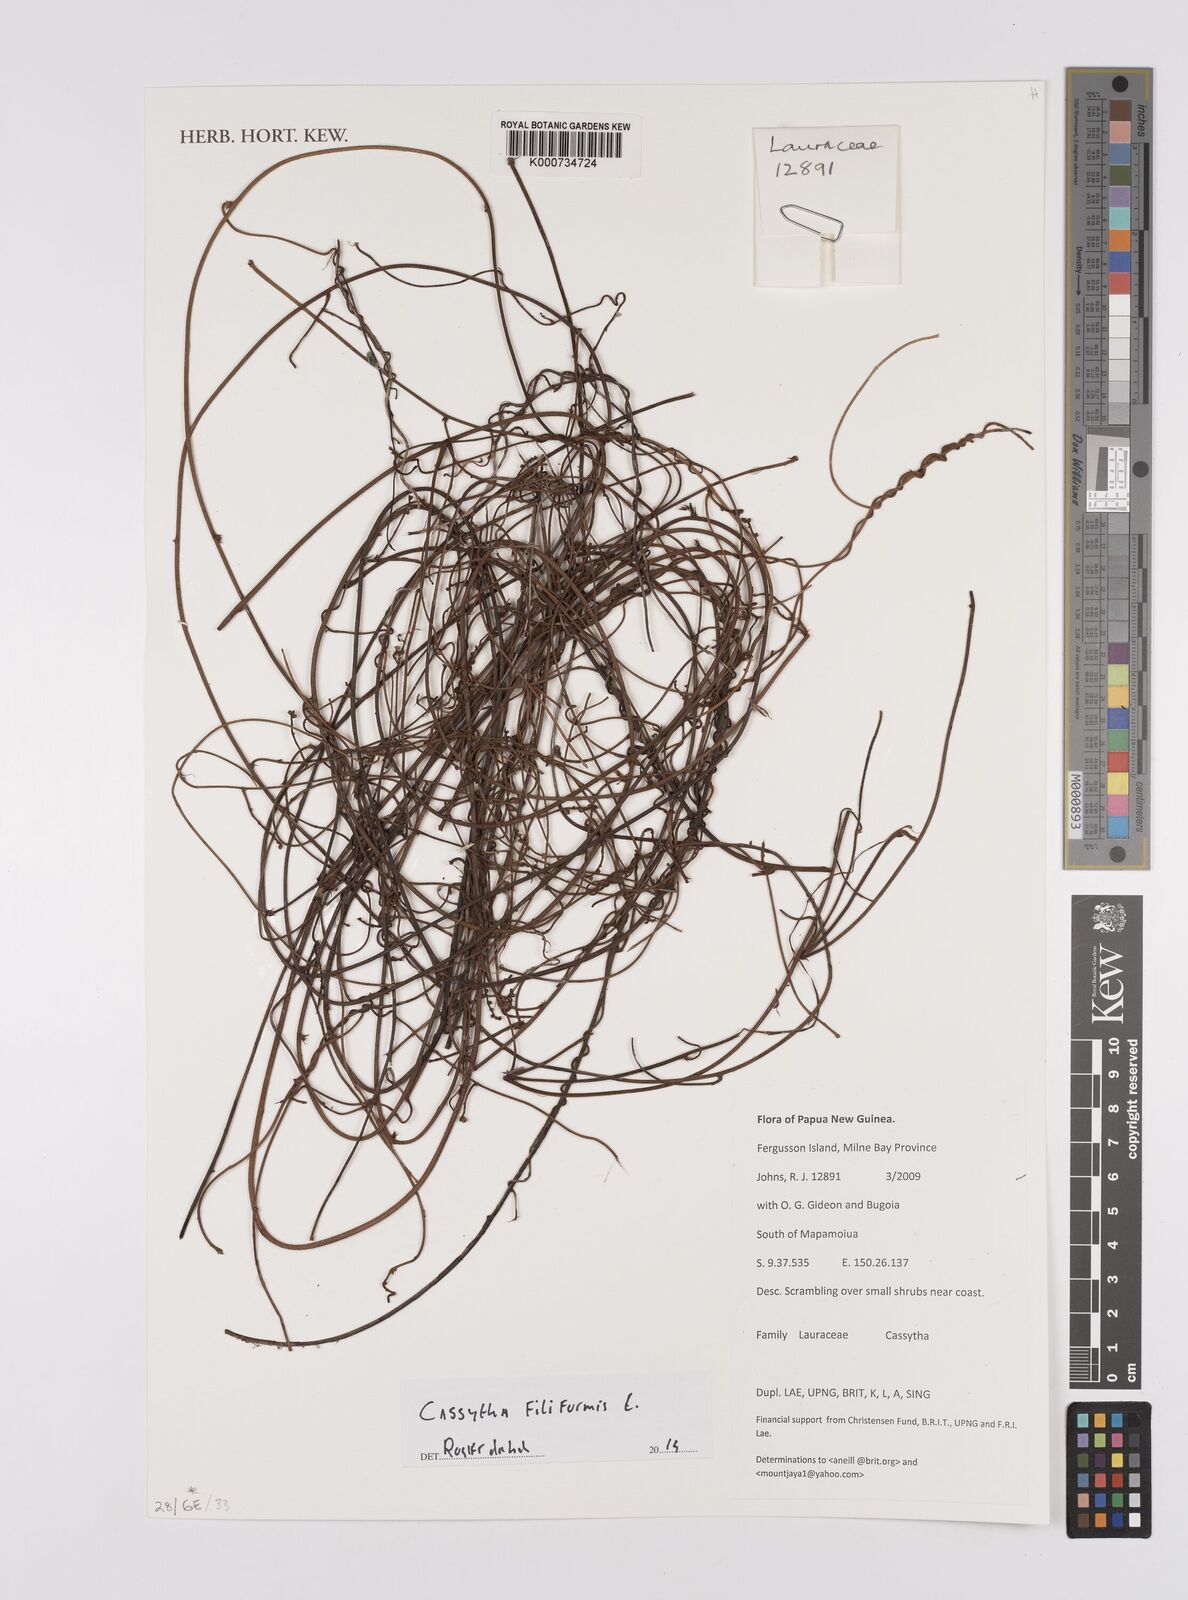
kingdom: Plantae
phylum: Tracheophyta
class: Magnoliopsida
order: Laurales
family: Lauraceae
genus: Cassytha
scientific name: Cassytha filiformis
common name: Dodder-laurel
